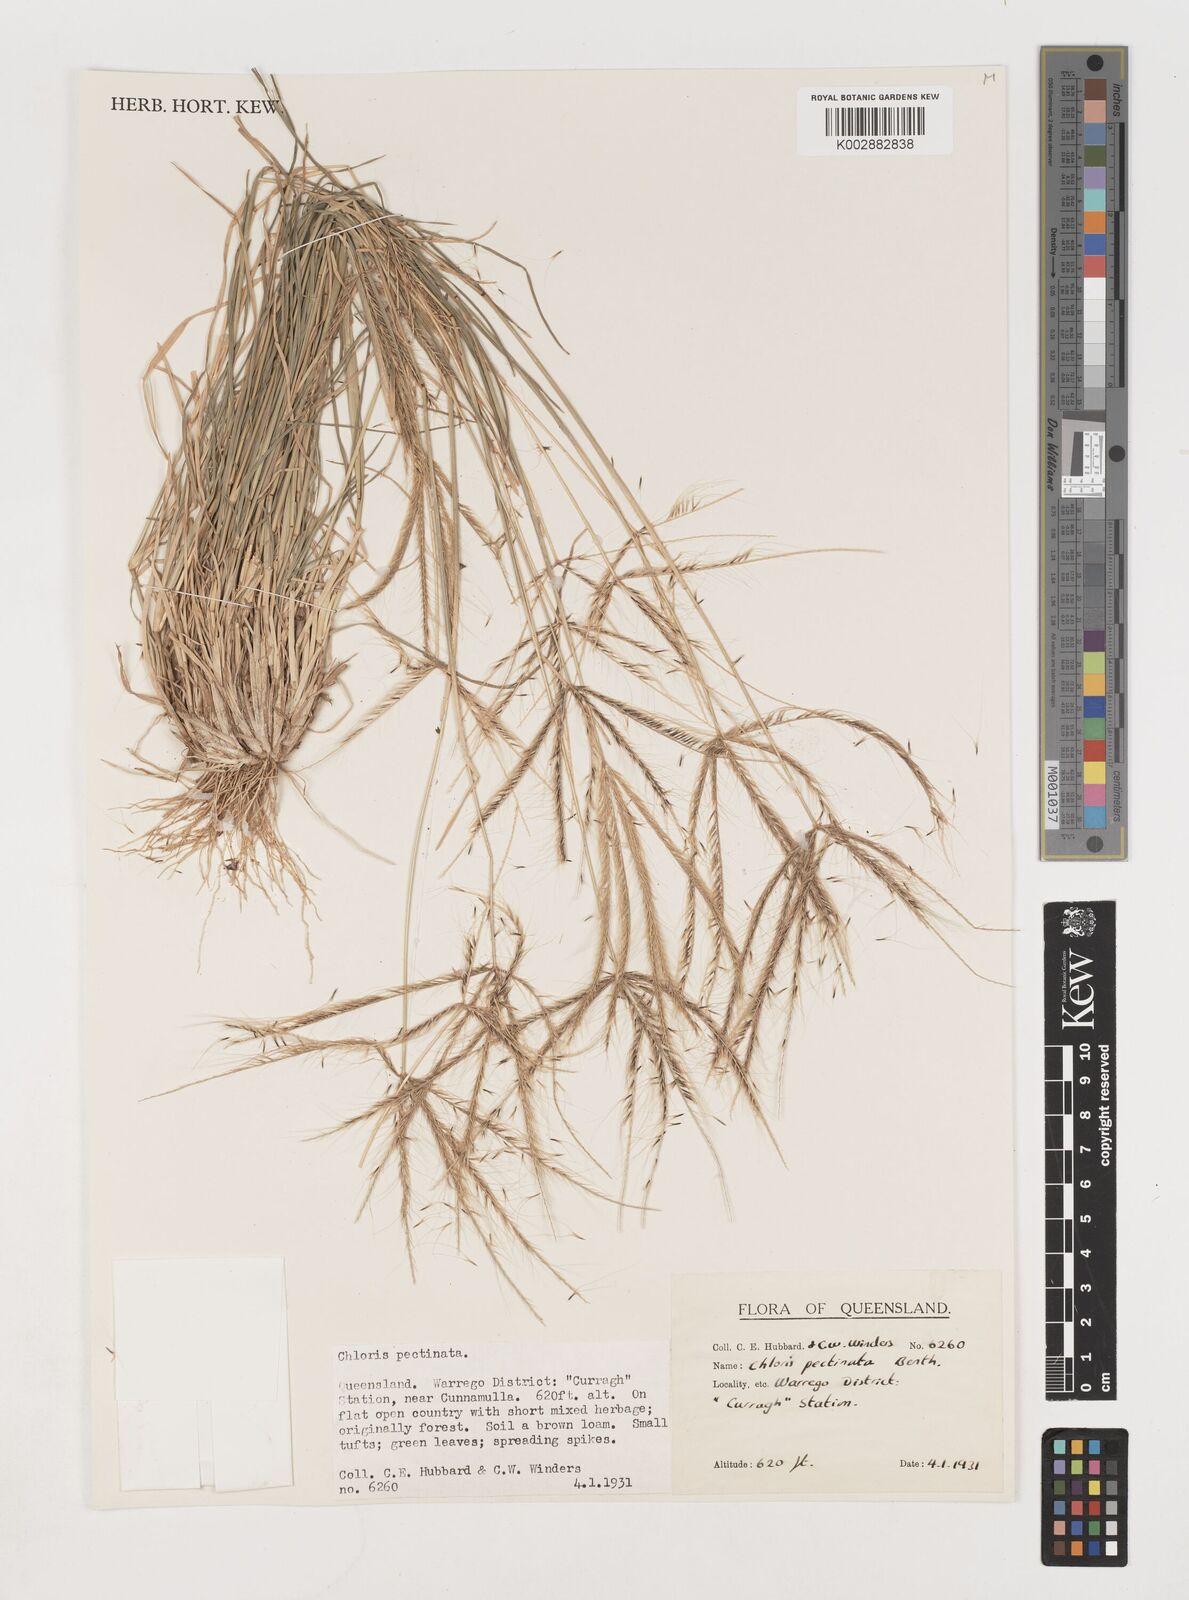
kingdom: Plantae
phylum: Tracheophyta
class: Liliopsida
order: Poales
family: Poaceae
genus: Chloris
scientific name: Chloris pectinata
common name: Comb windmill grass
